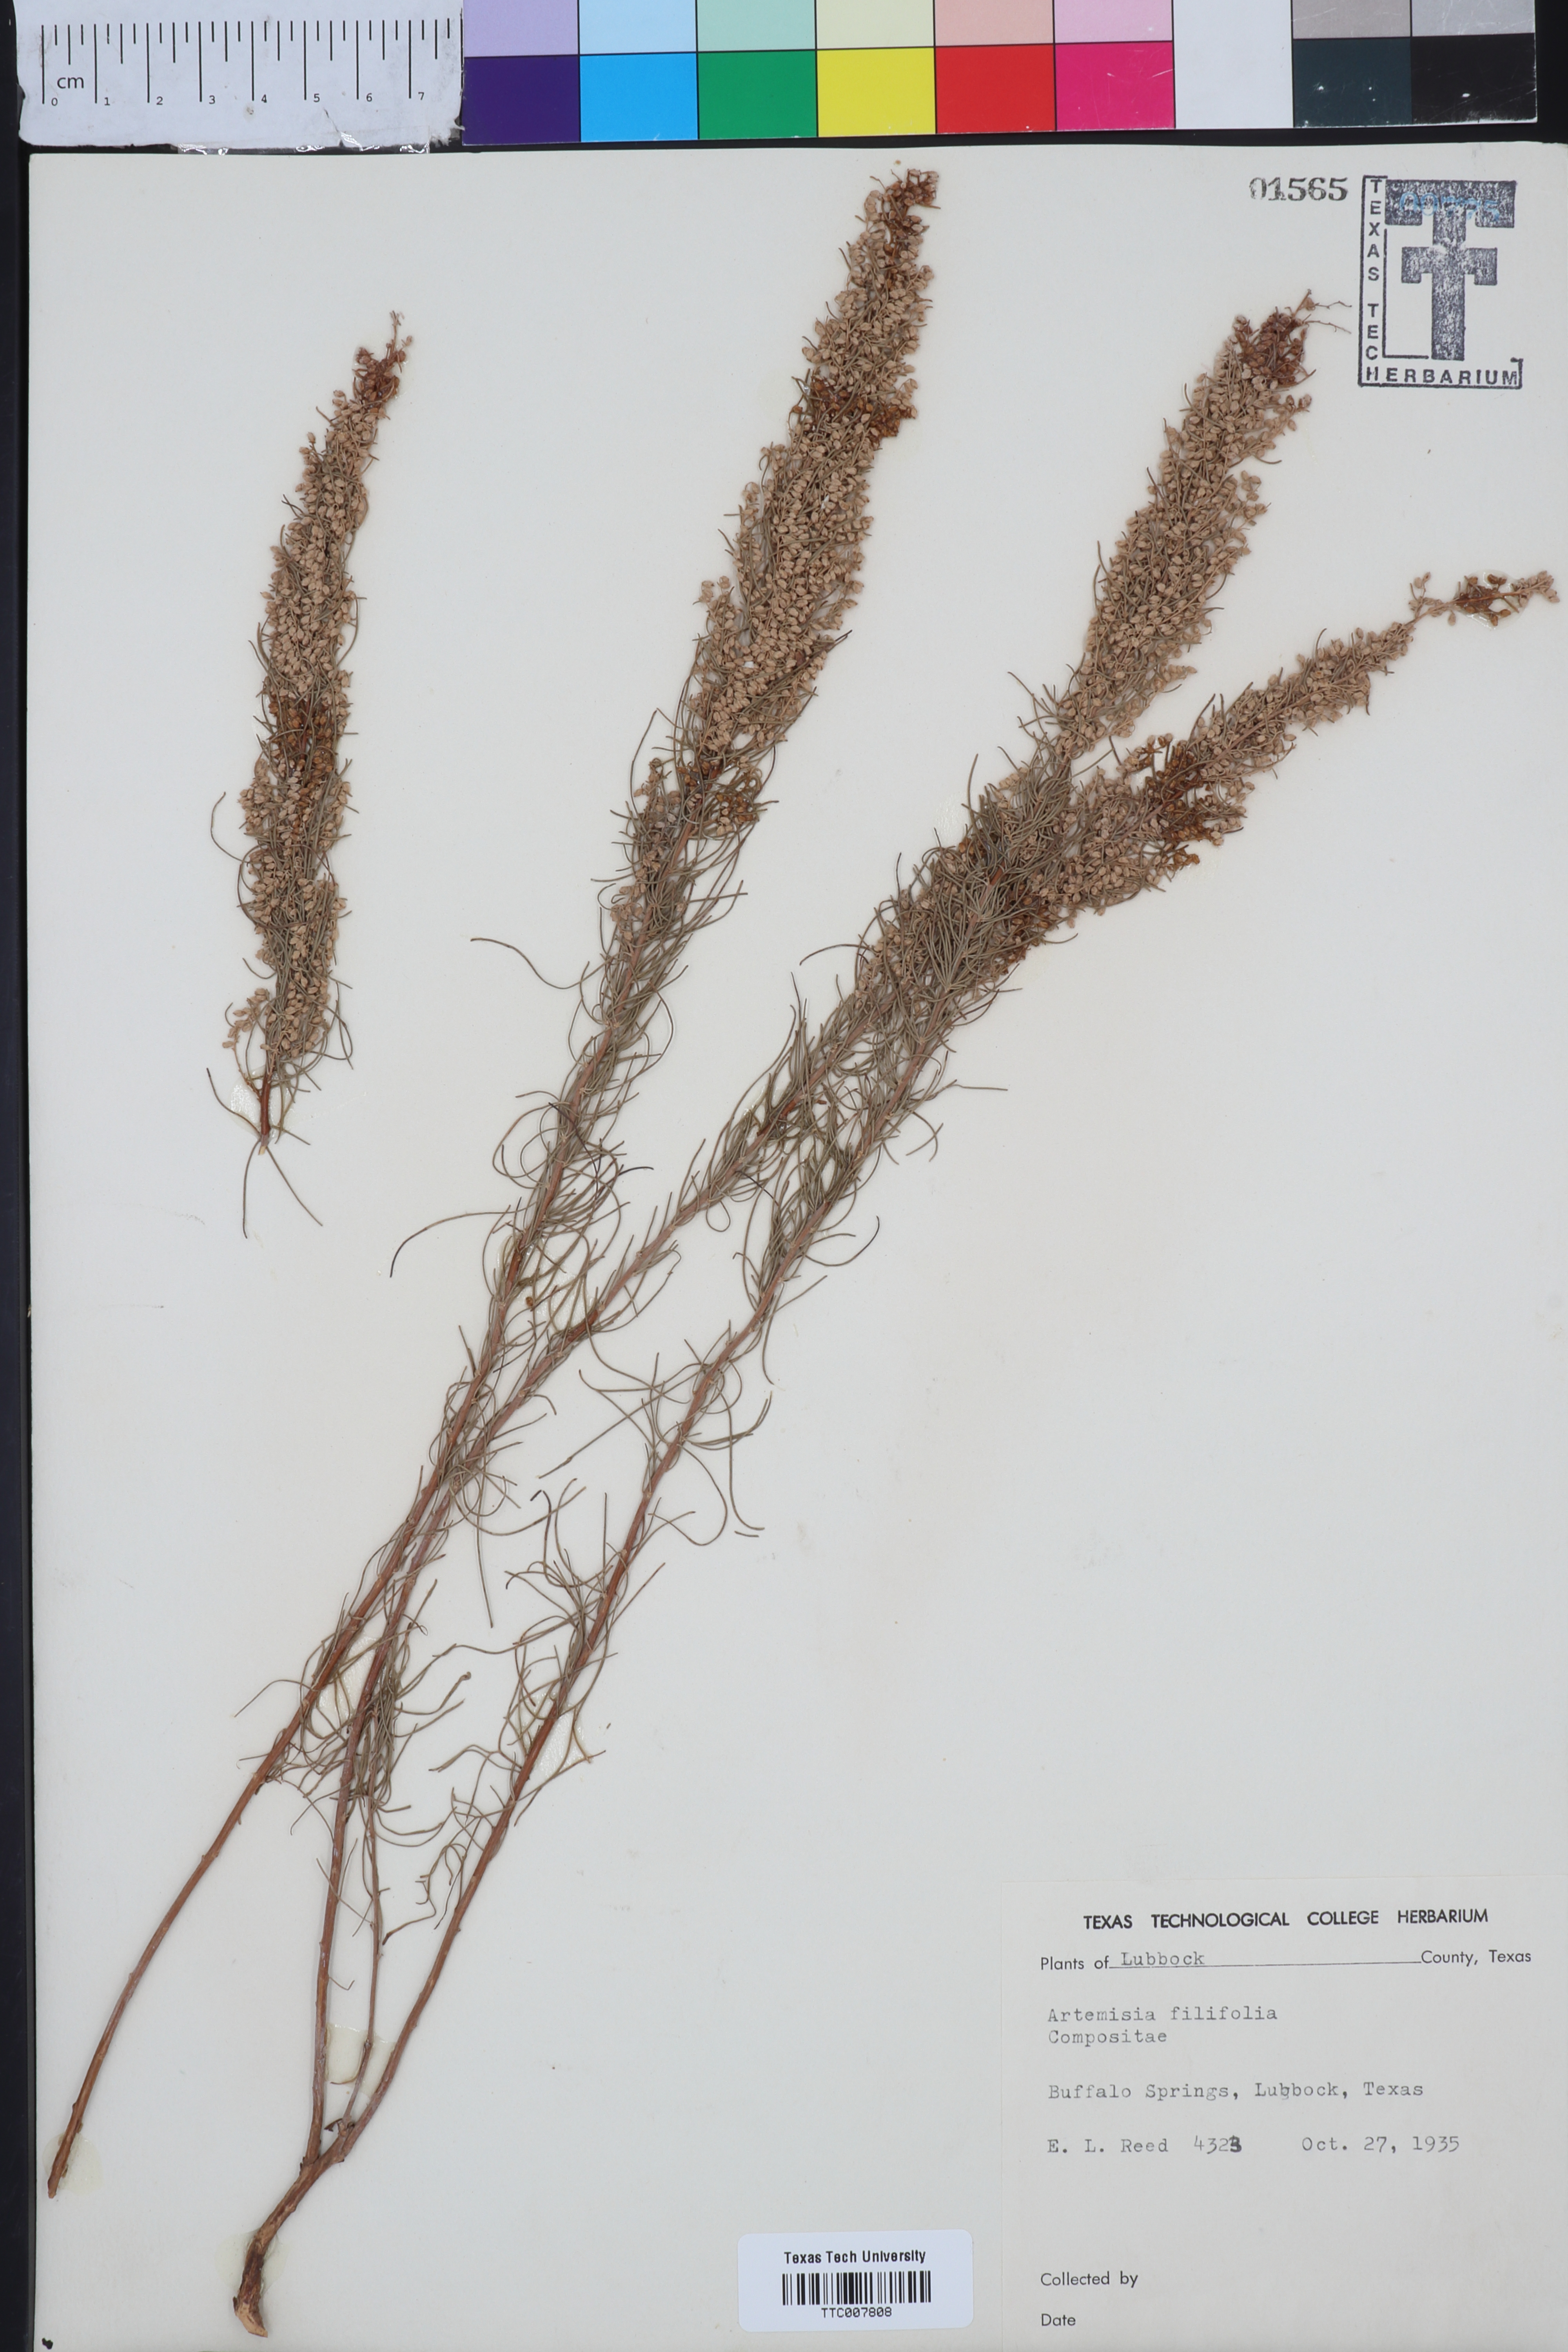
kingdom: Plantae
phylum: Tracheophyta
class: Magnoliopsida
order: Asterales
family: Asteraceae
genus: Artemisia
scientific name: Artemisia filifolia
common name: Sand-sage
